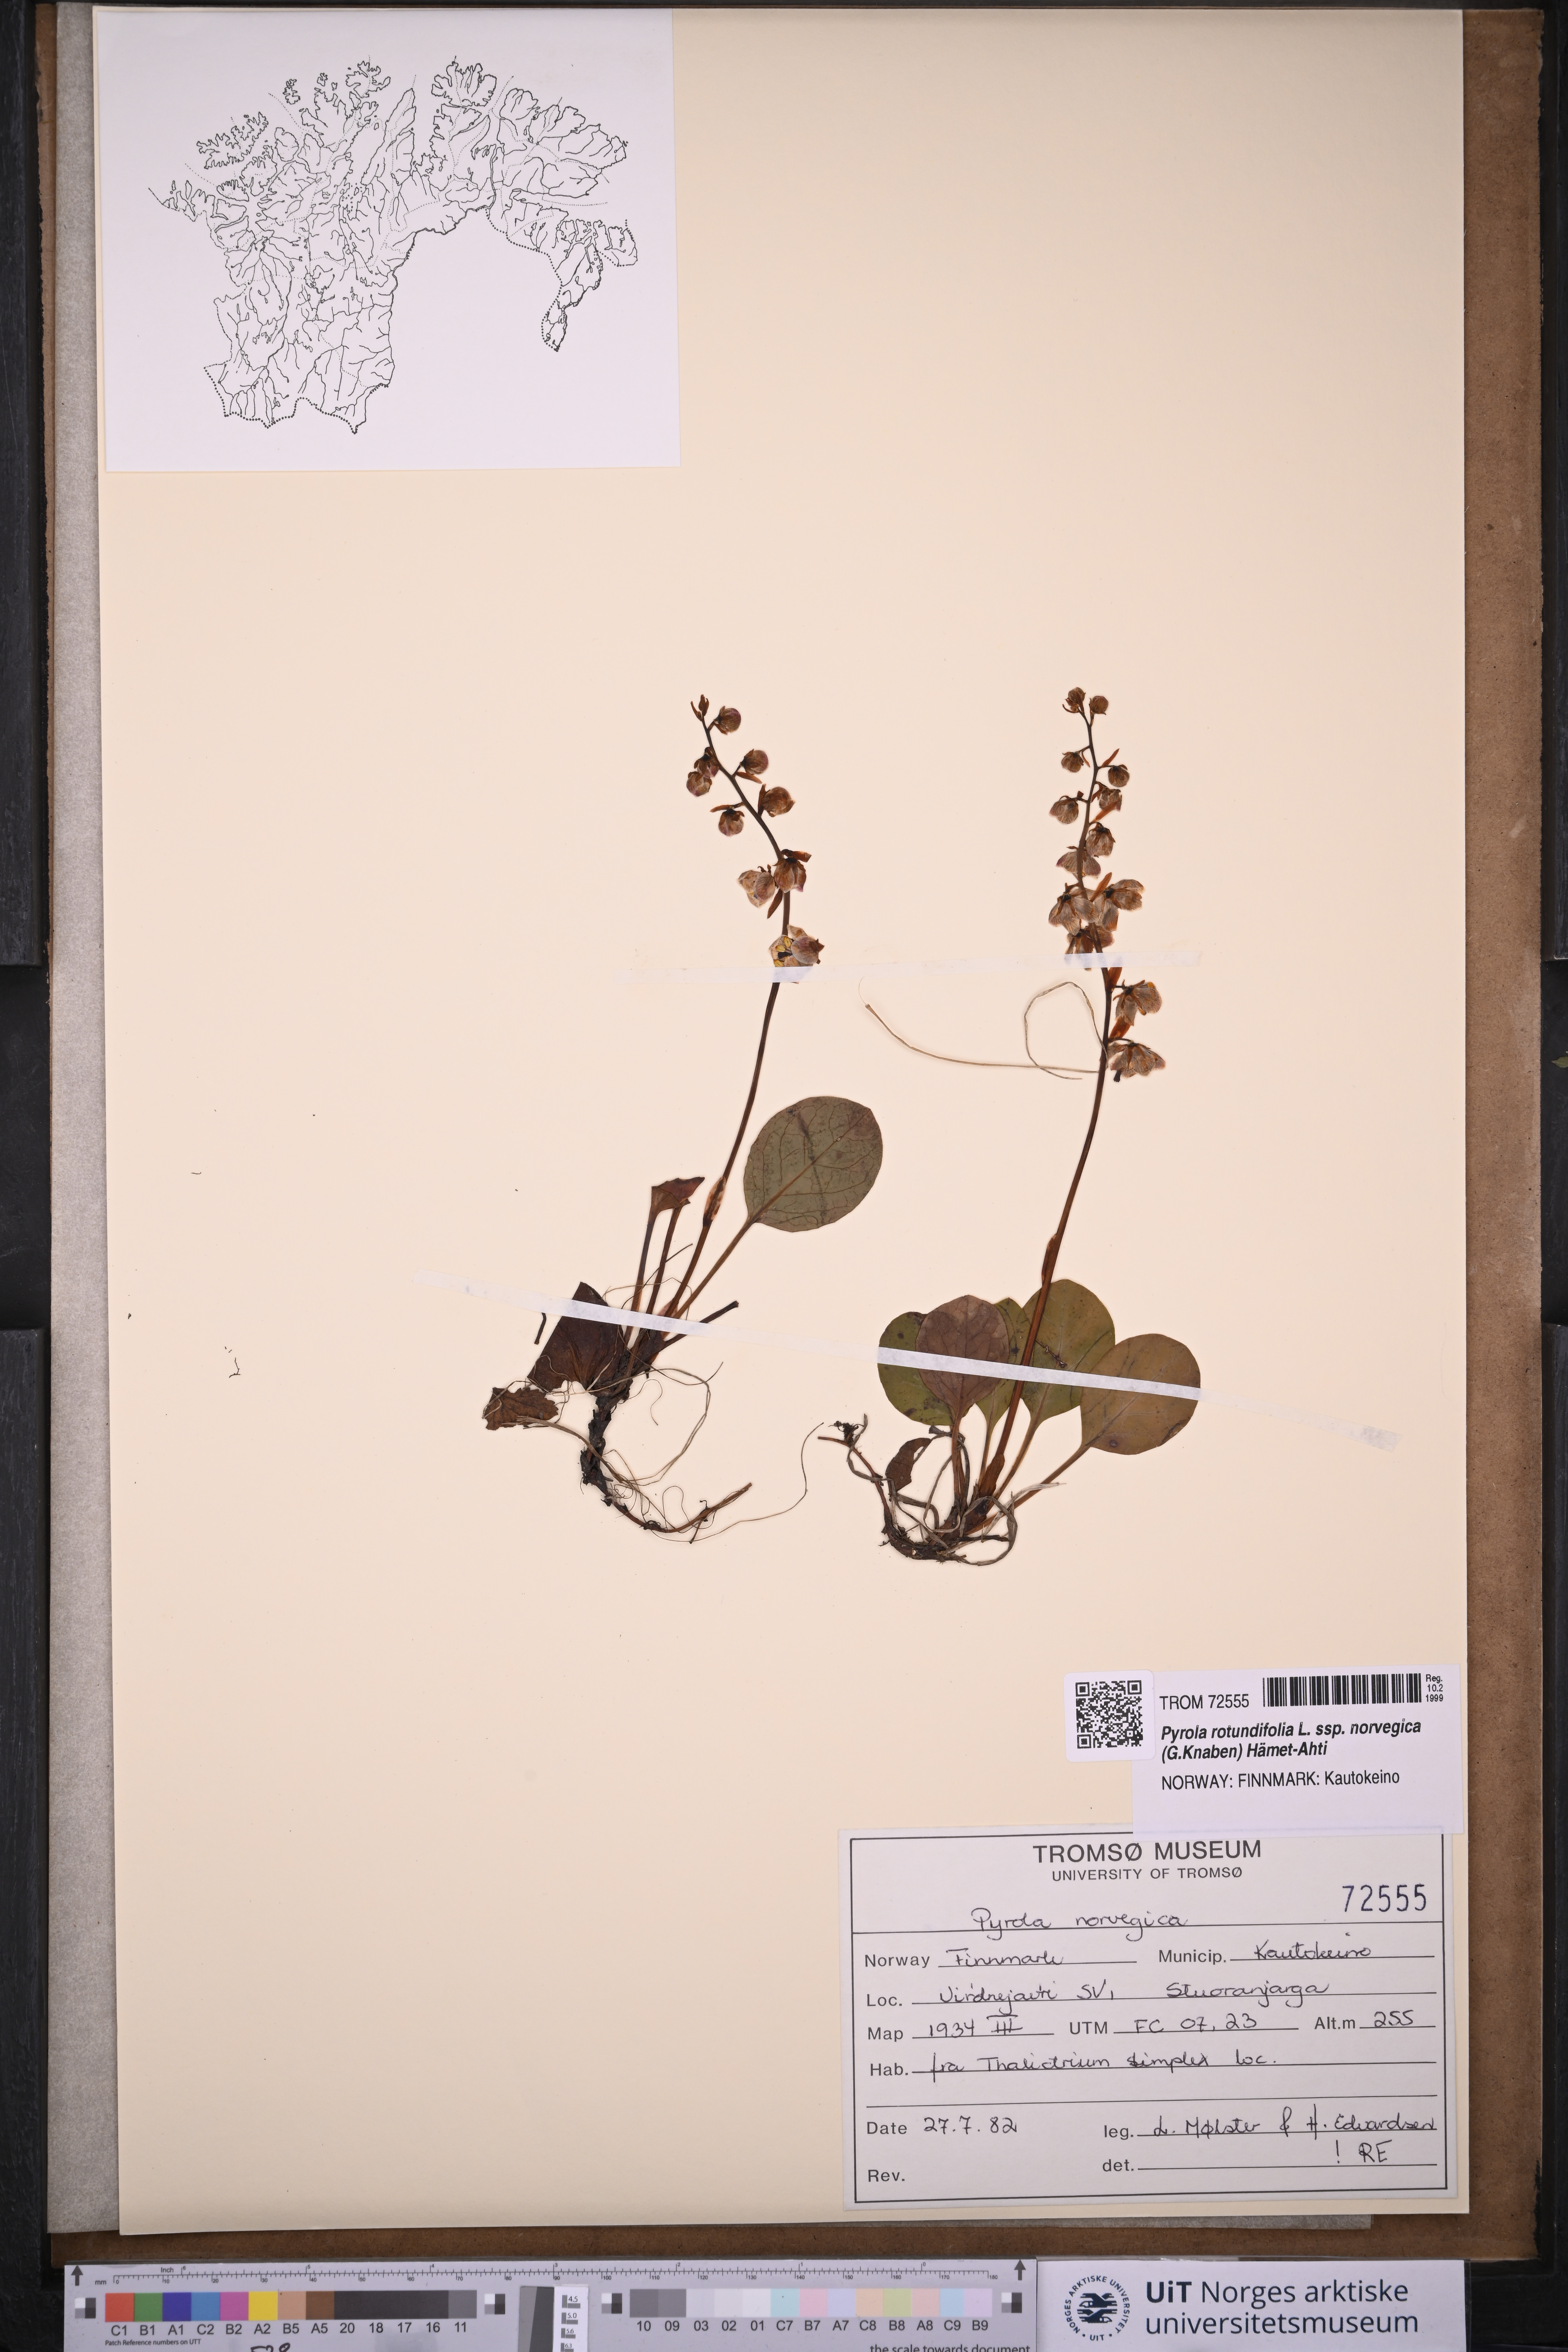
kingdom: Plantae
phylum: Tracheophyta
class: Magnoliopsida
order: Ericales
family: Ericaceae
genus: Pyrola
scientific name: Pyrola rotundifolia
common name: Round-leaved wintergreen
